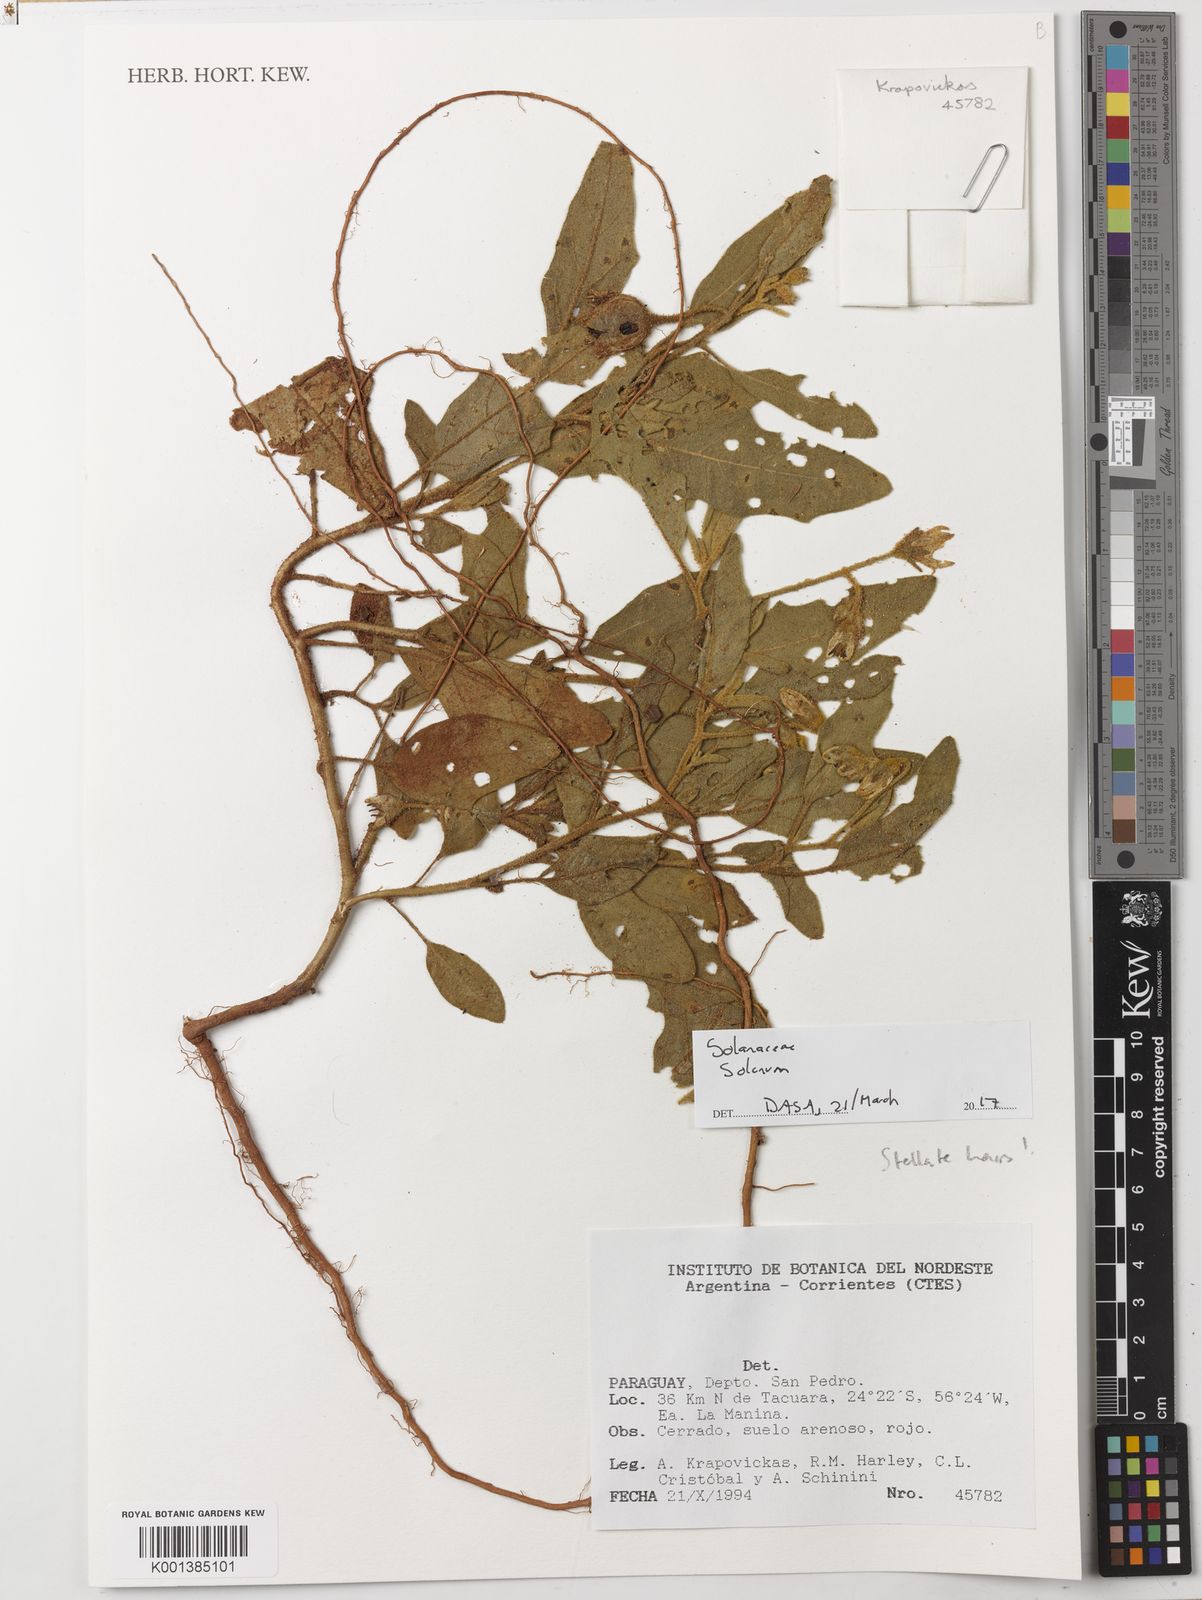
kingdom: Plantae
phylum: Tracheophyta
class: Magnoliopsida
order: Solanales
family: Solanaceae
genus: Solanum
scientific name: Solanum hasslerianum
